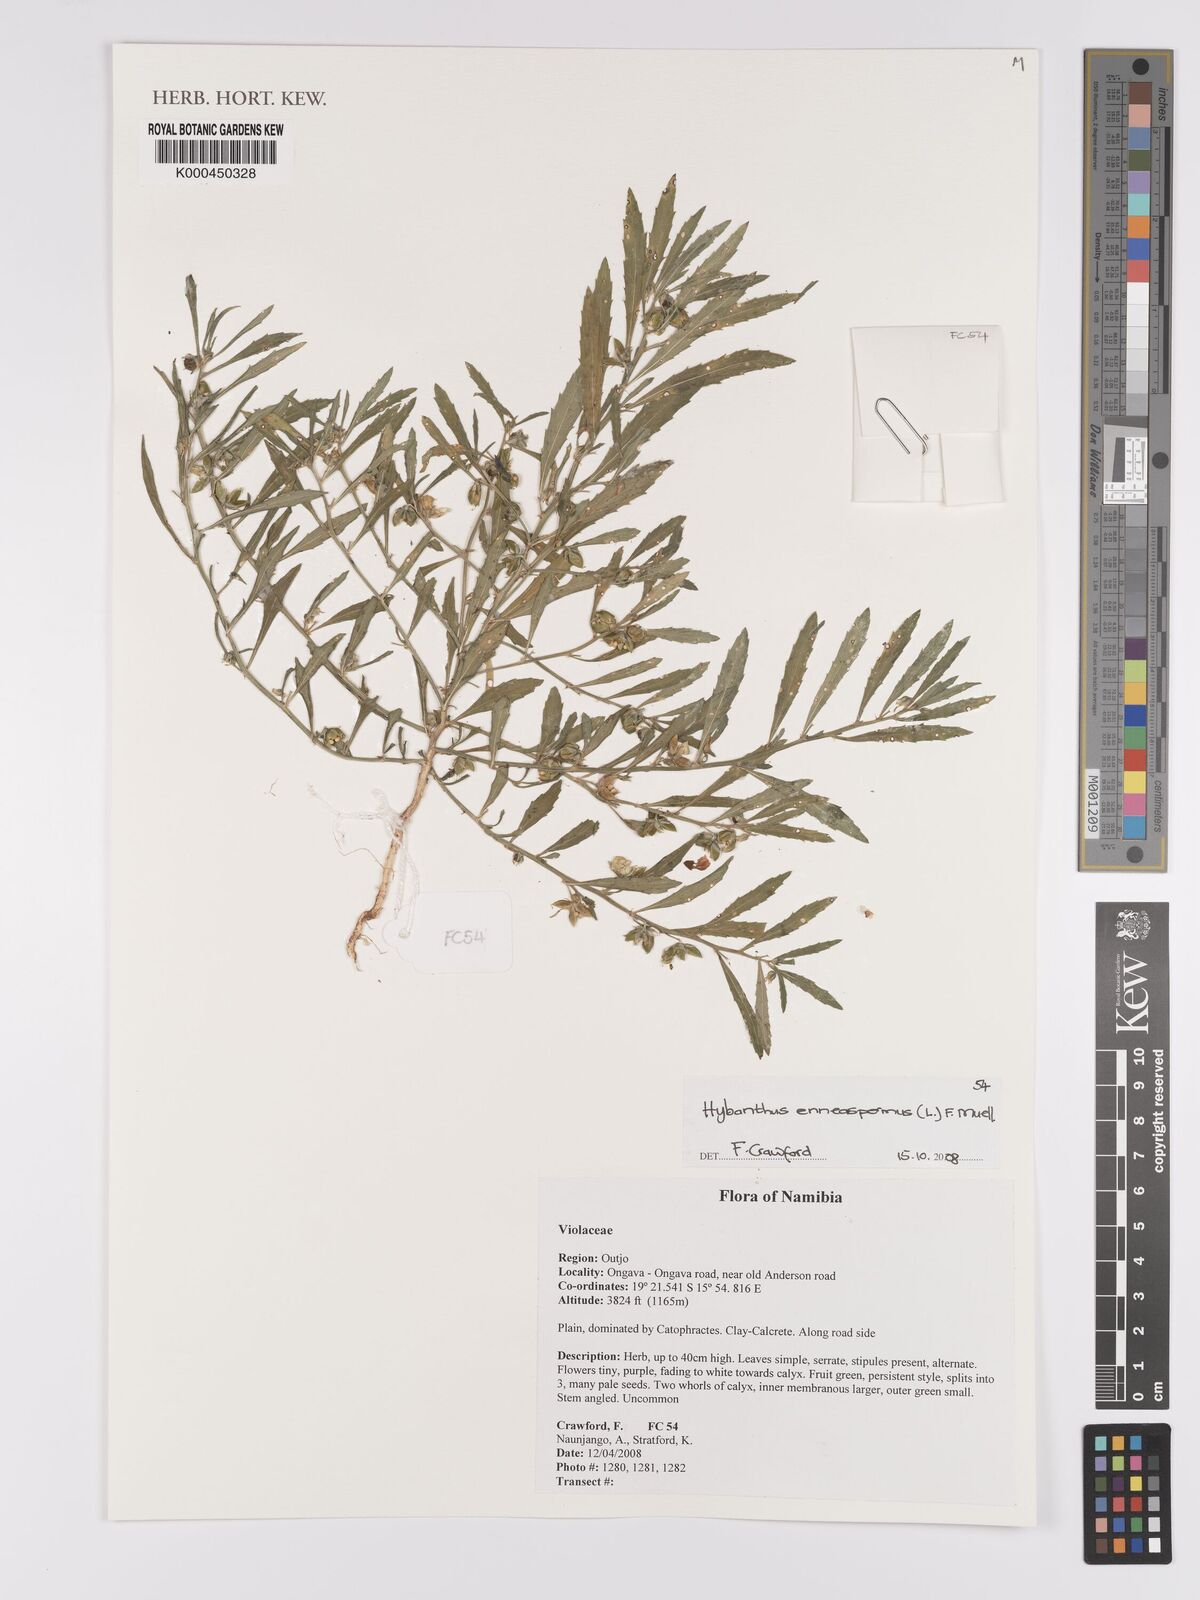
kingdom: Plantae
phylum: Tracheophyta
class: Magnoliopsida
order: Malpighiales
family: Violaceae
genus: Pigea
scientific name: Pigea enneasperma
